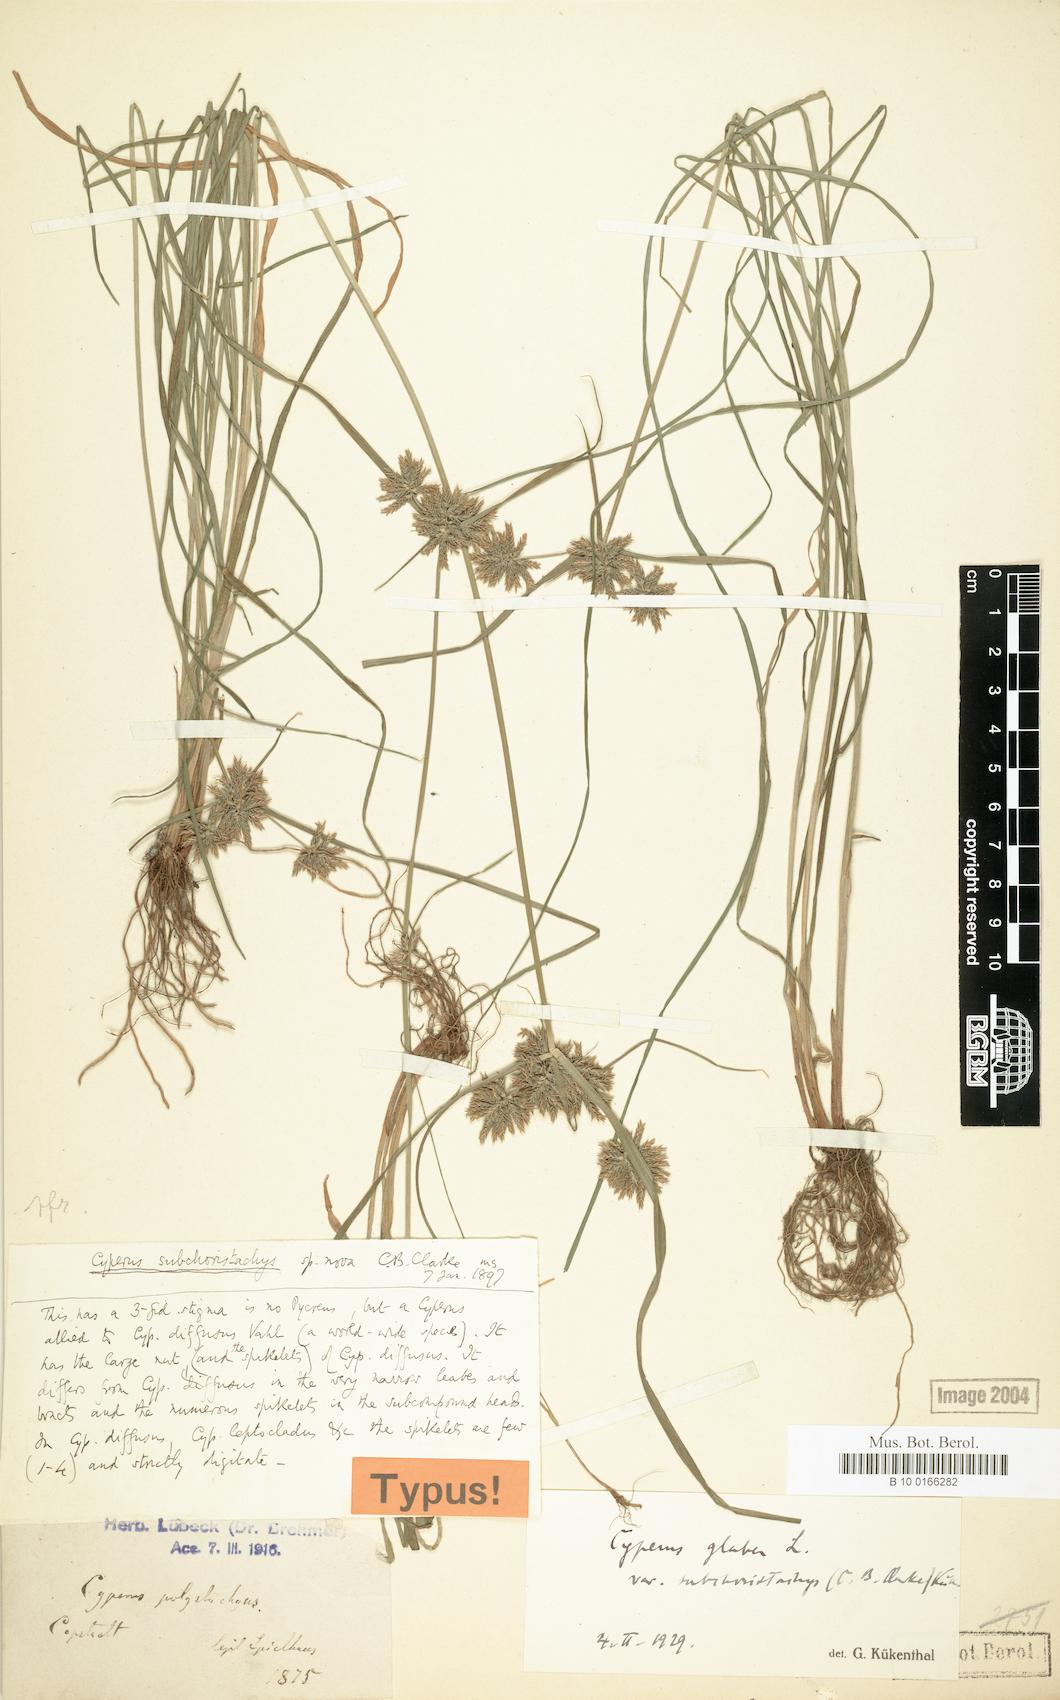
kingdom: Plantae
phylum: Tracheophyta
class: Liliopsida
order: Poales
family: Cyperaceae
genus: Cyperus
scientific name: Cyperus glaber
